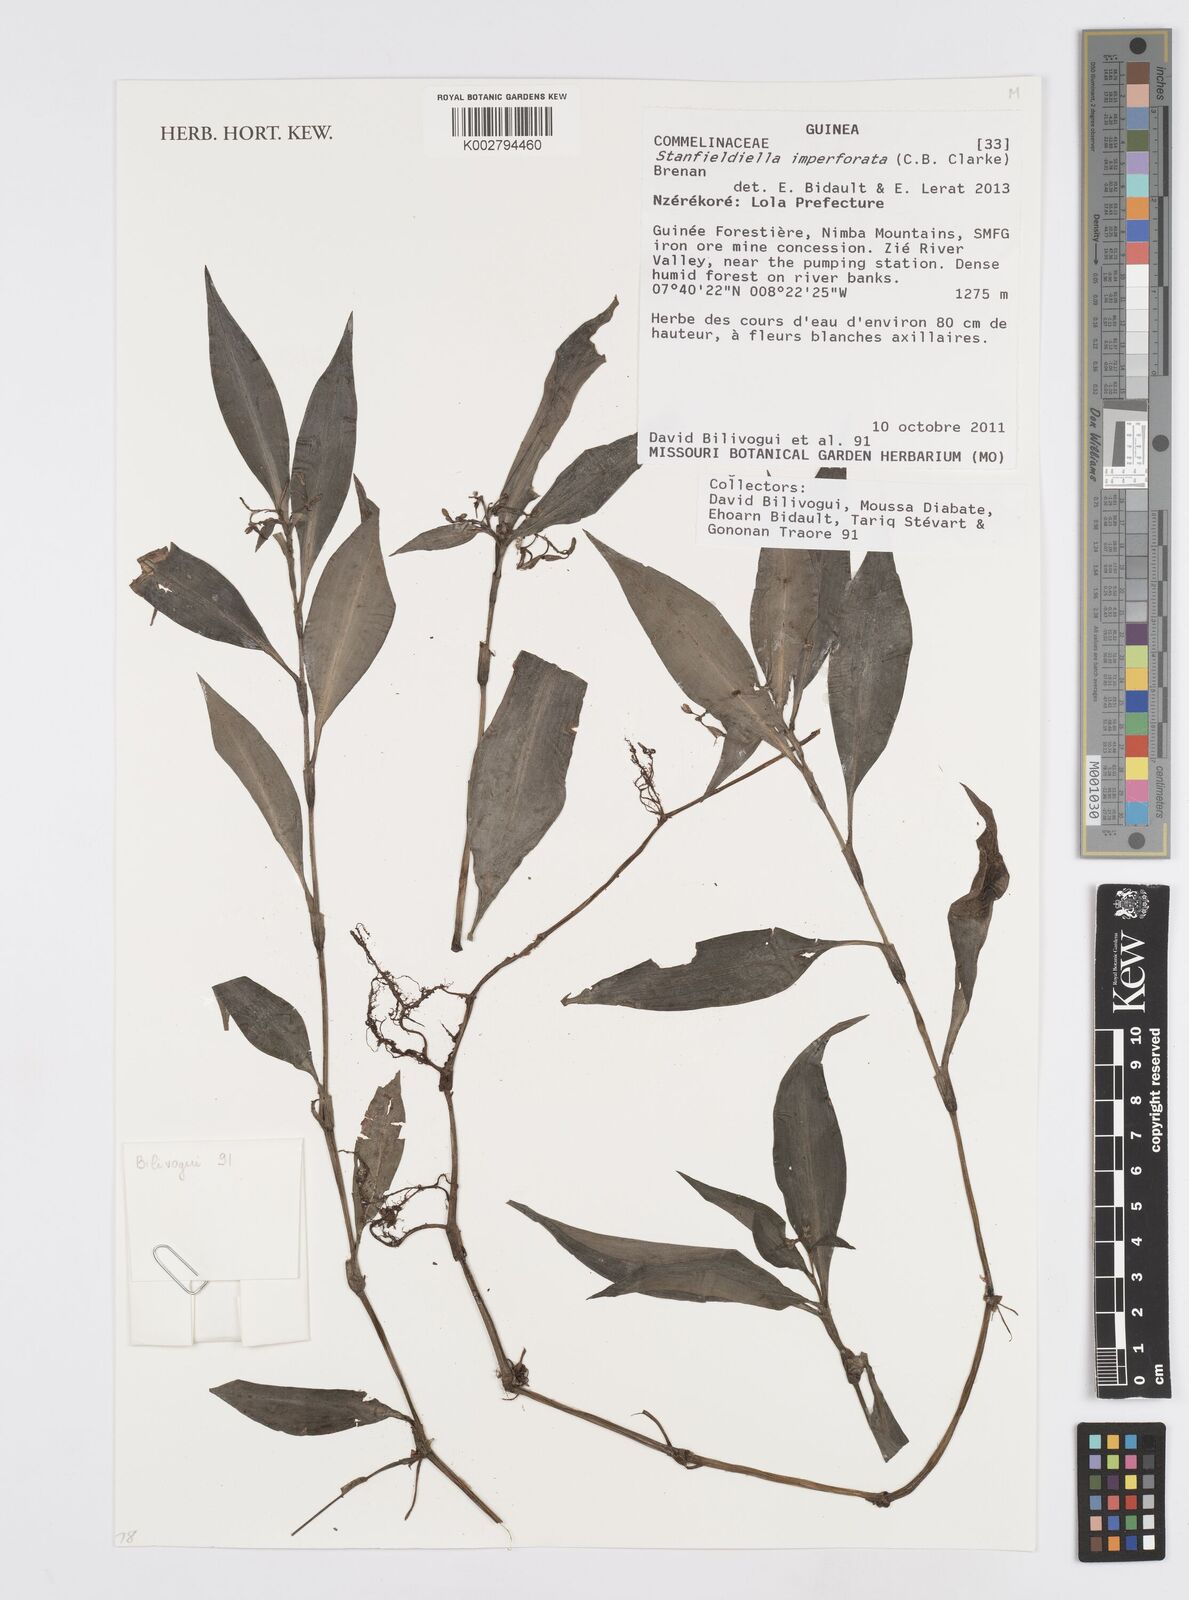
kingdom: Plantae
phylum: Tracheophyta
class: Liliopsida
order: Commelinales
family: Commelinaceae
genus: Stanfieldiella
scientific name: Stanfieldiella imperforata
